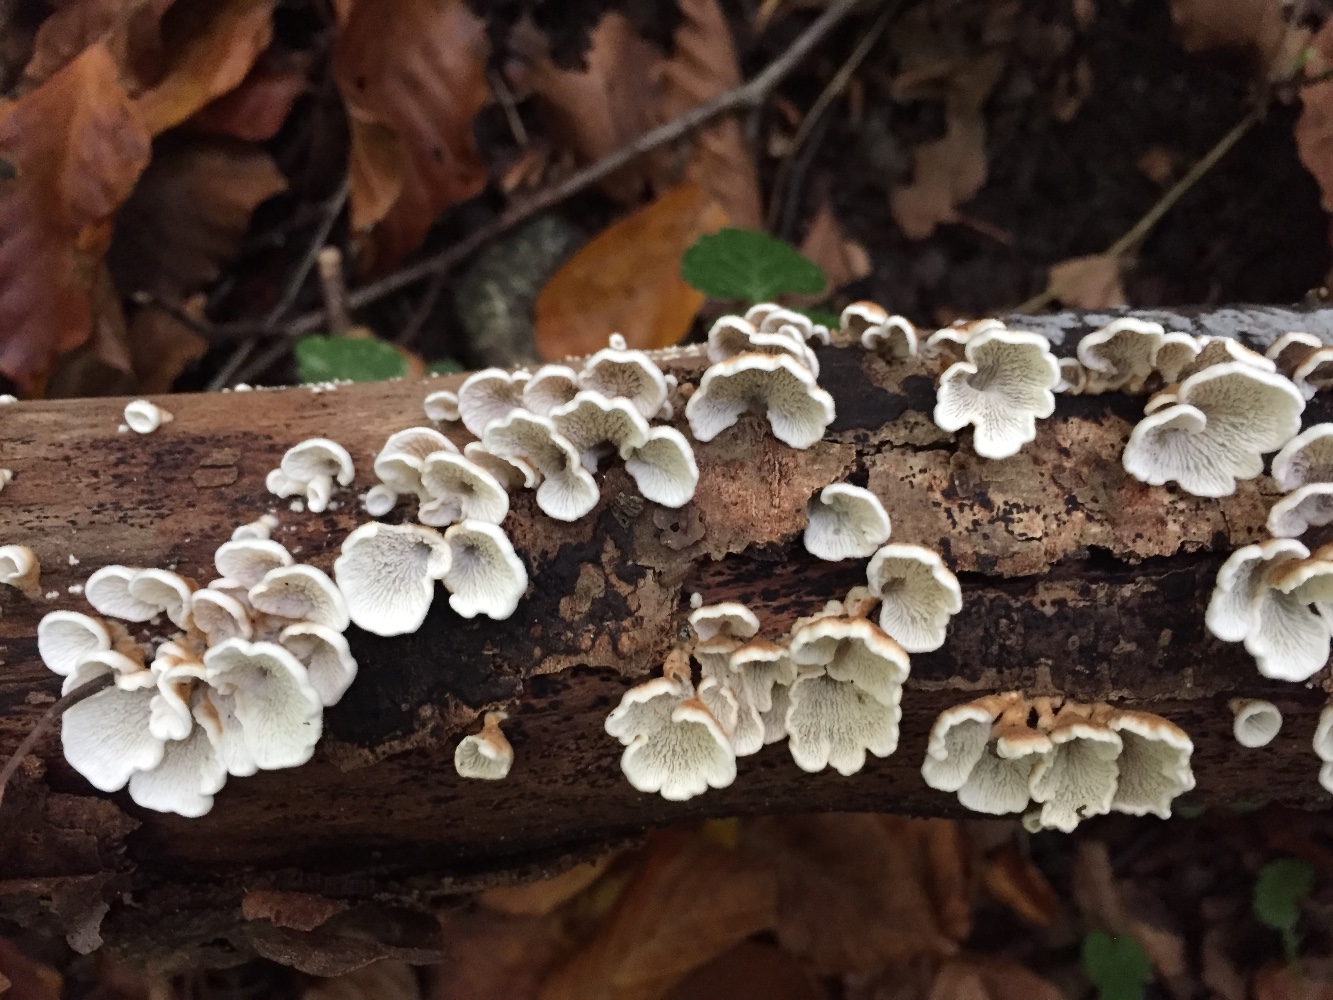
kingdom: Fungi
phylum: Basidiomycota
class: Agaricomycetes
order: Amylocorticiales
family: Amylocorticiaceae
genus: Plicaturopsis
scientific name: Plicaturopsis crispa
